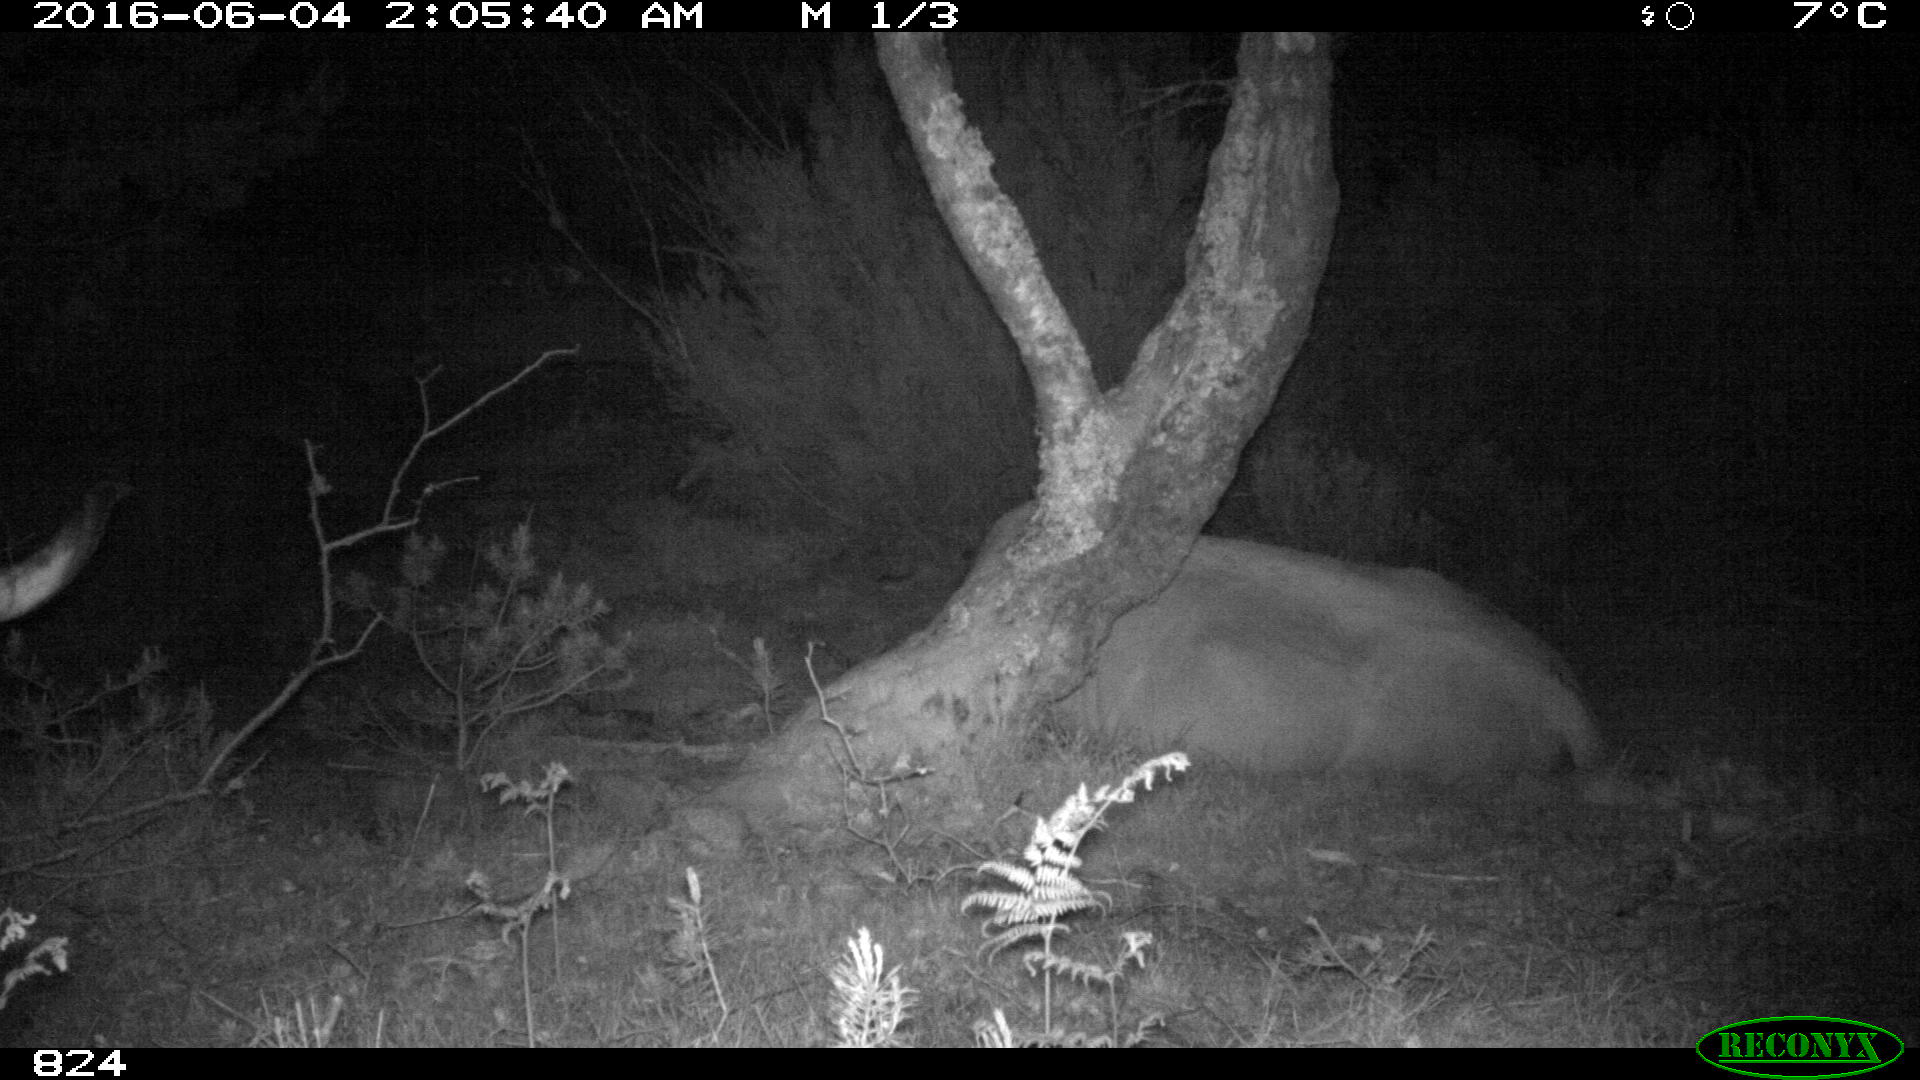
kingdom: Animalia
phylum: Chordata
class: Mammalia
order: Artiodactyla
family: Bovidae
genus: Bos
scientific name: Bos taurus
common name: Domesticated cattle
